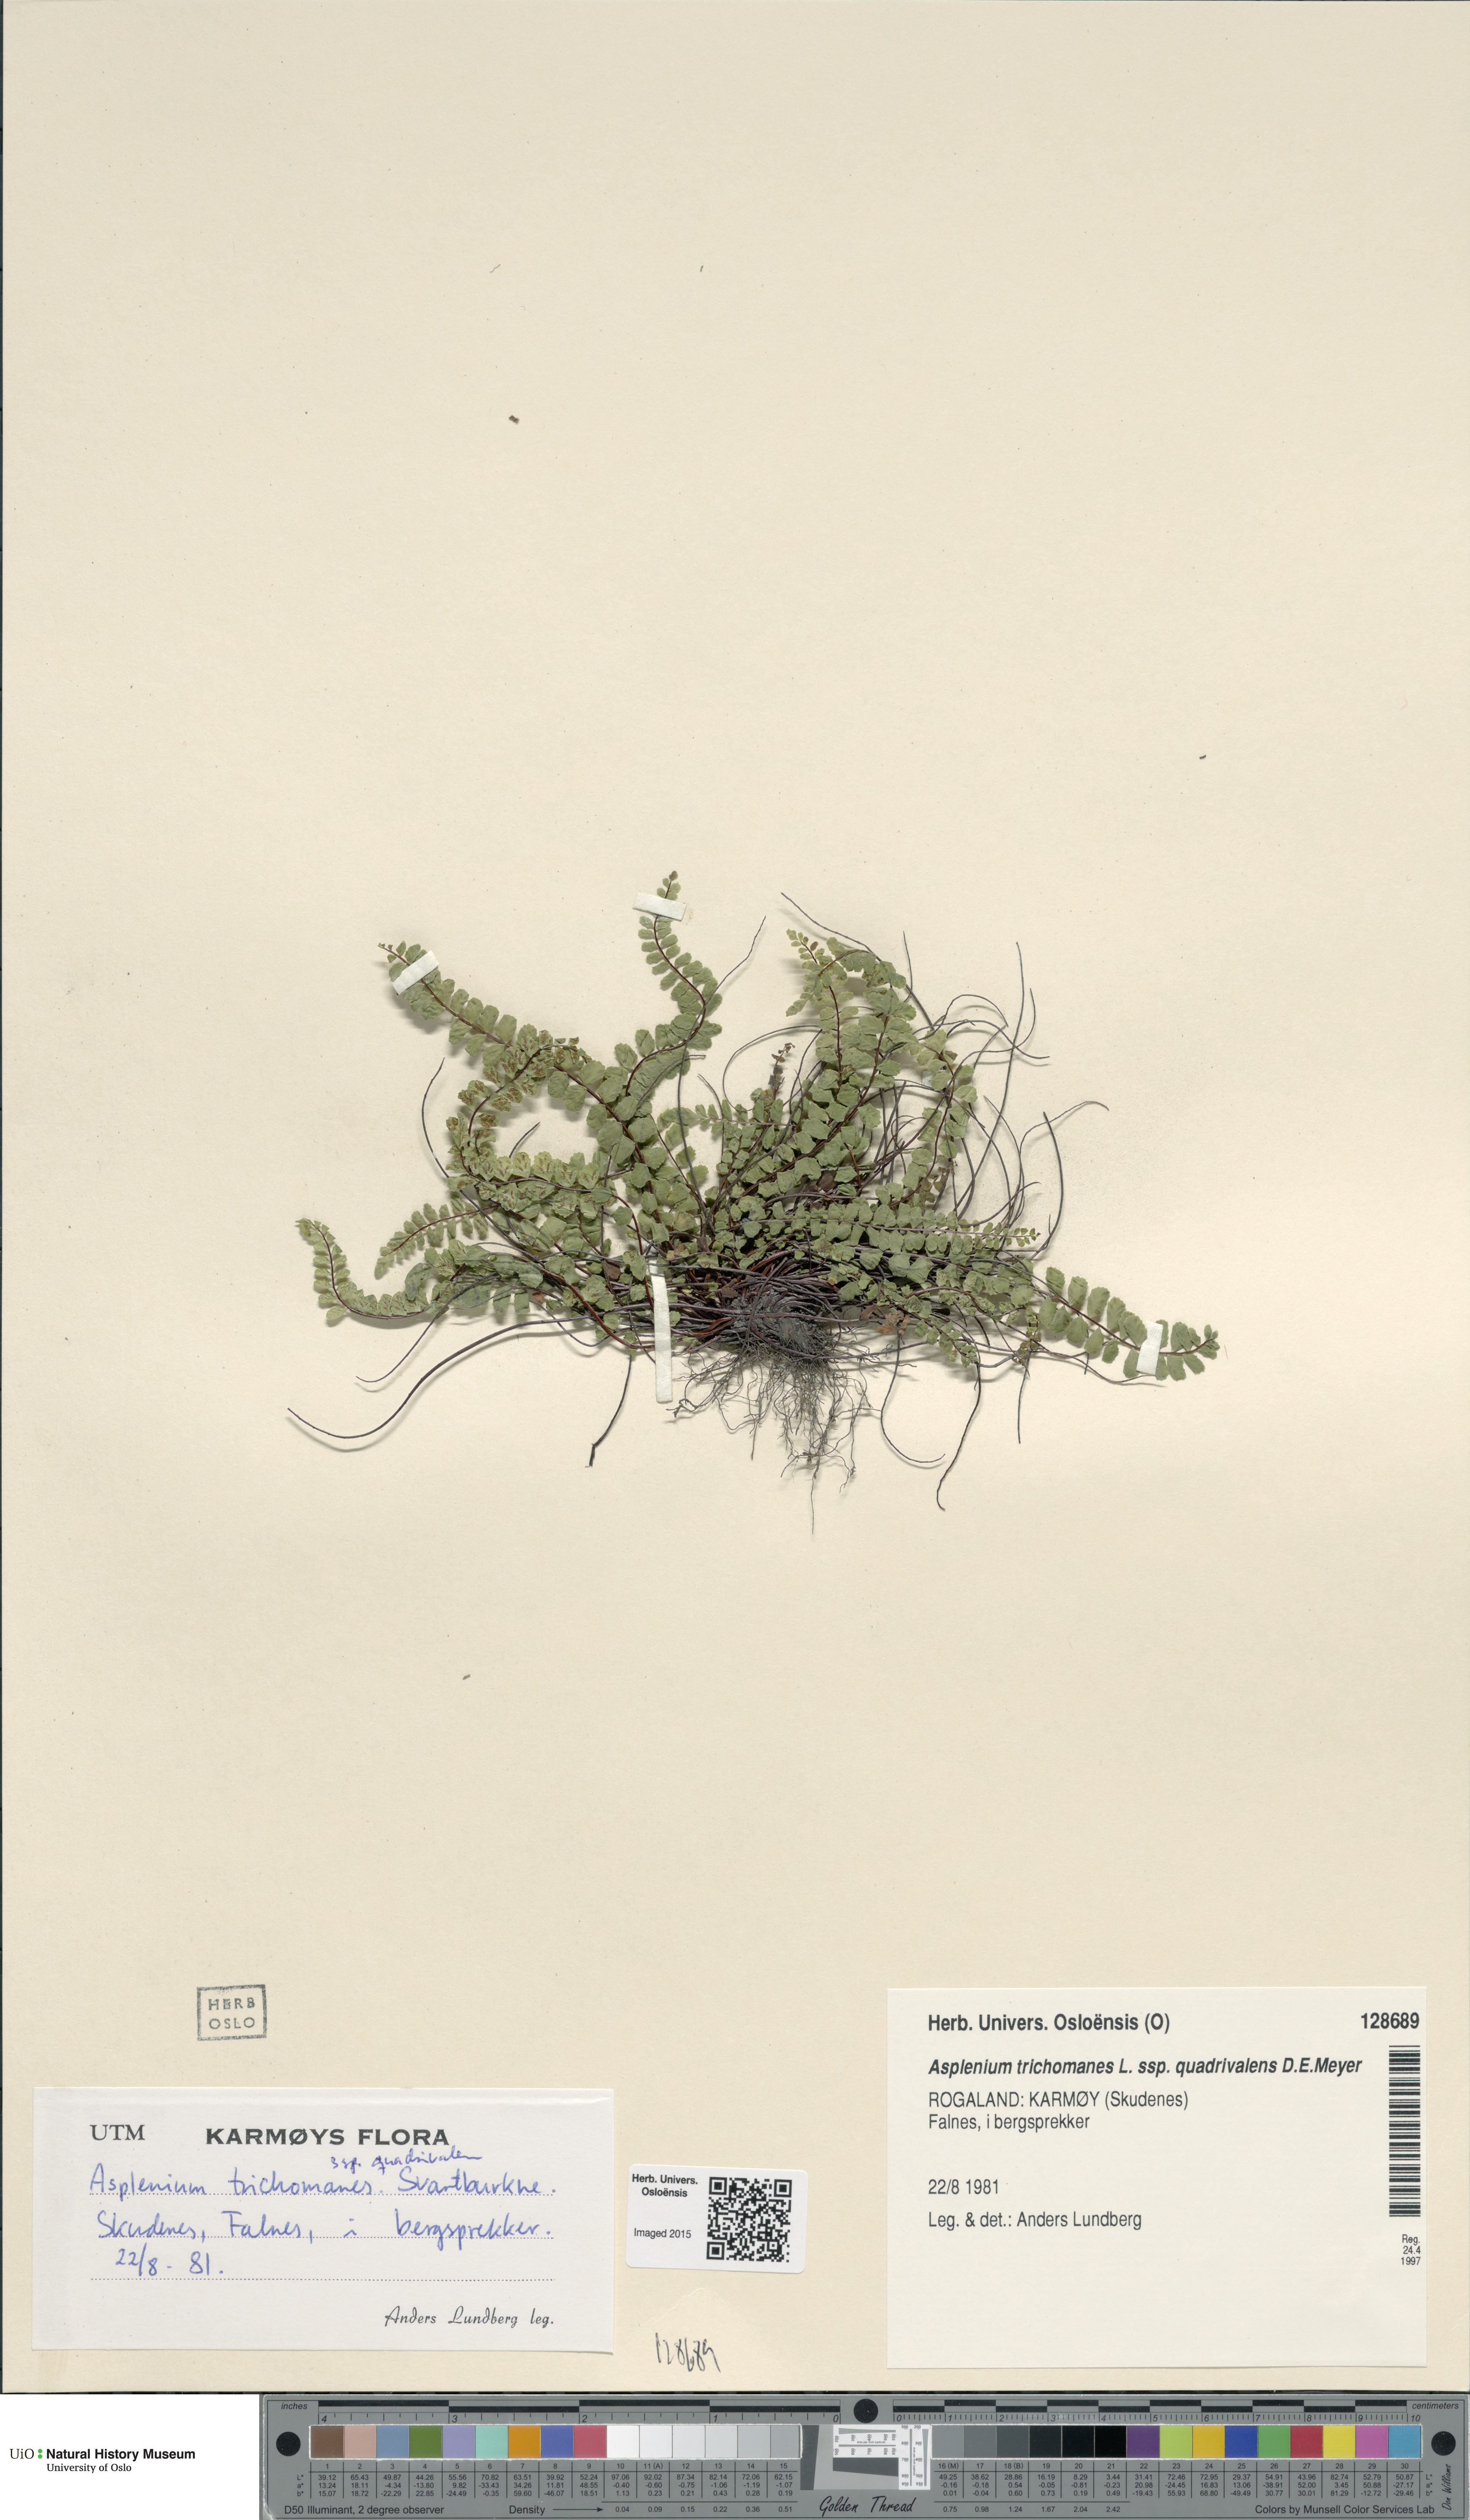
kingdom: Plantae
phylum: Tracheophyta
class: Polypodiopsida
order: Polypodiales
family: Aspleniaceae
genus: Asplenium
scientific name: Asplenium quadrivalens
